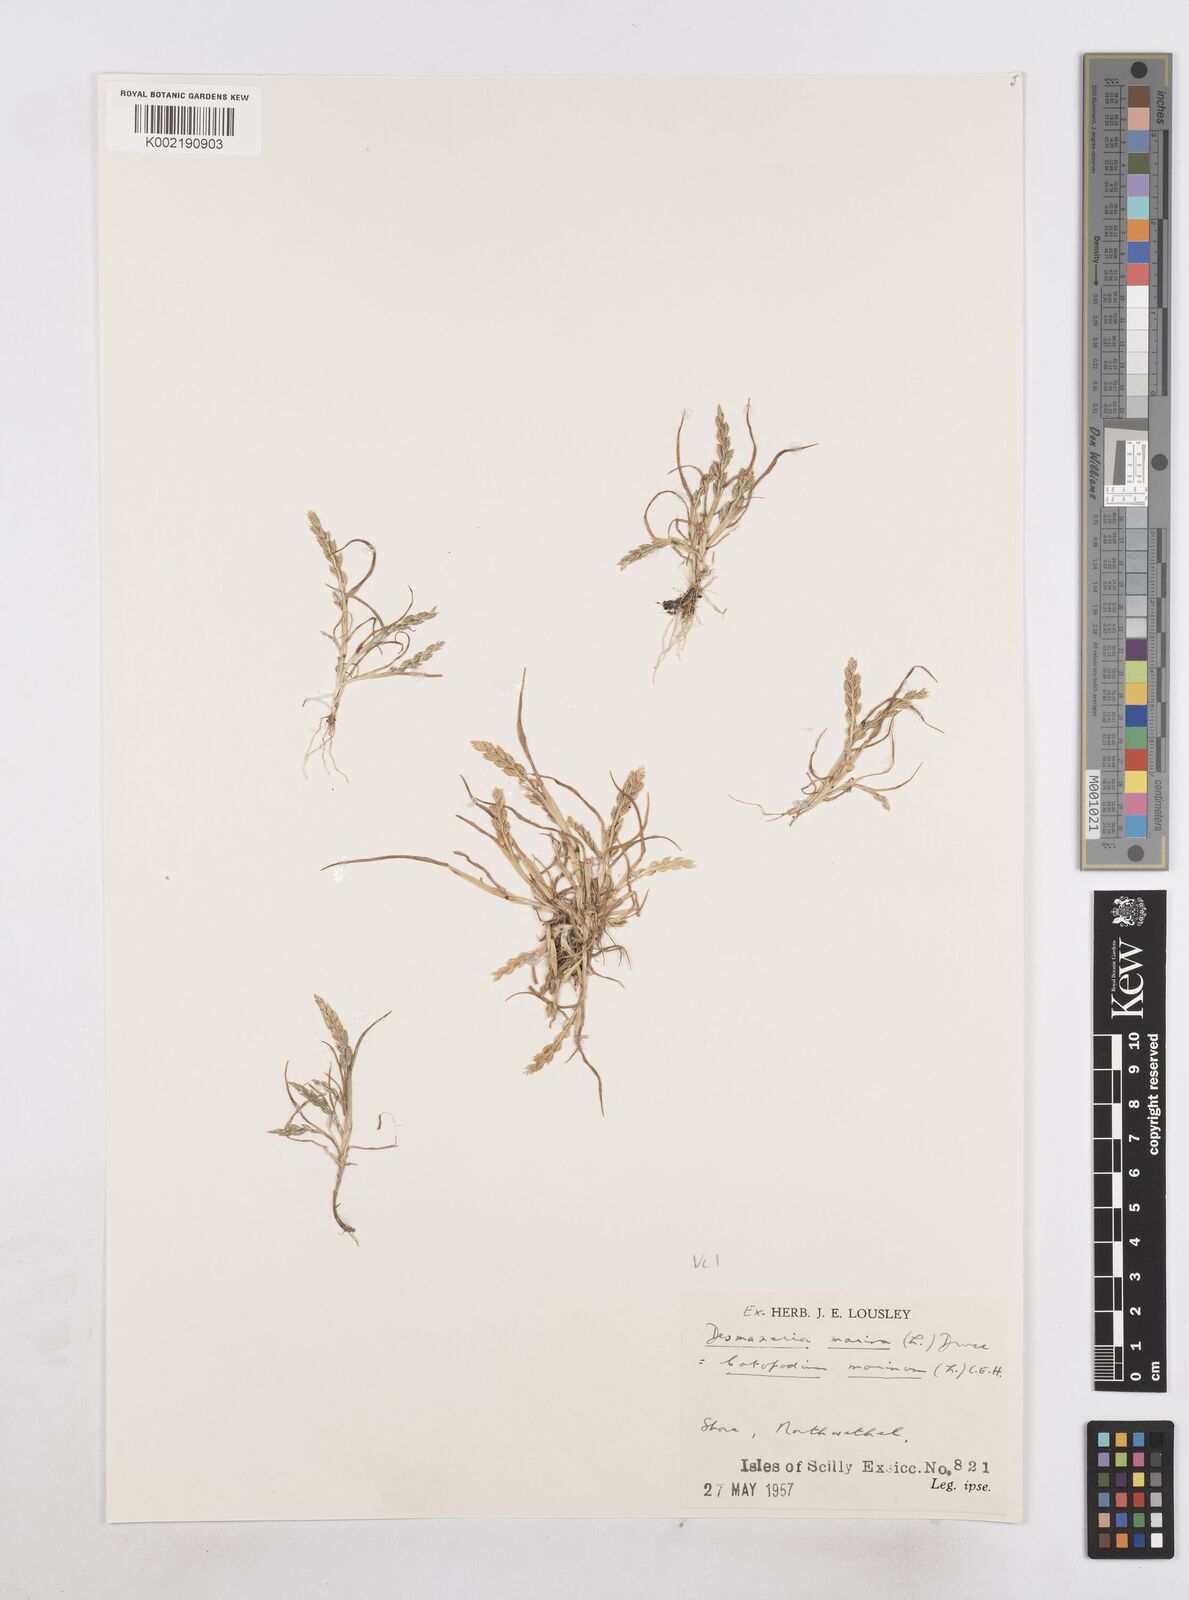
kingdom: Plantae
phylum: Tracheophyta
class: Liliopsida
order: Poales
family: Poaceae
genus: Catapodium
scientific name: Catapodium marinum
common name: Sea fern-grass
